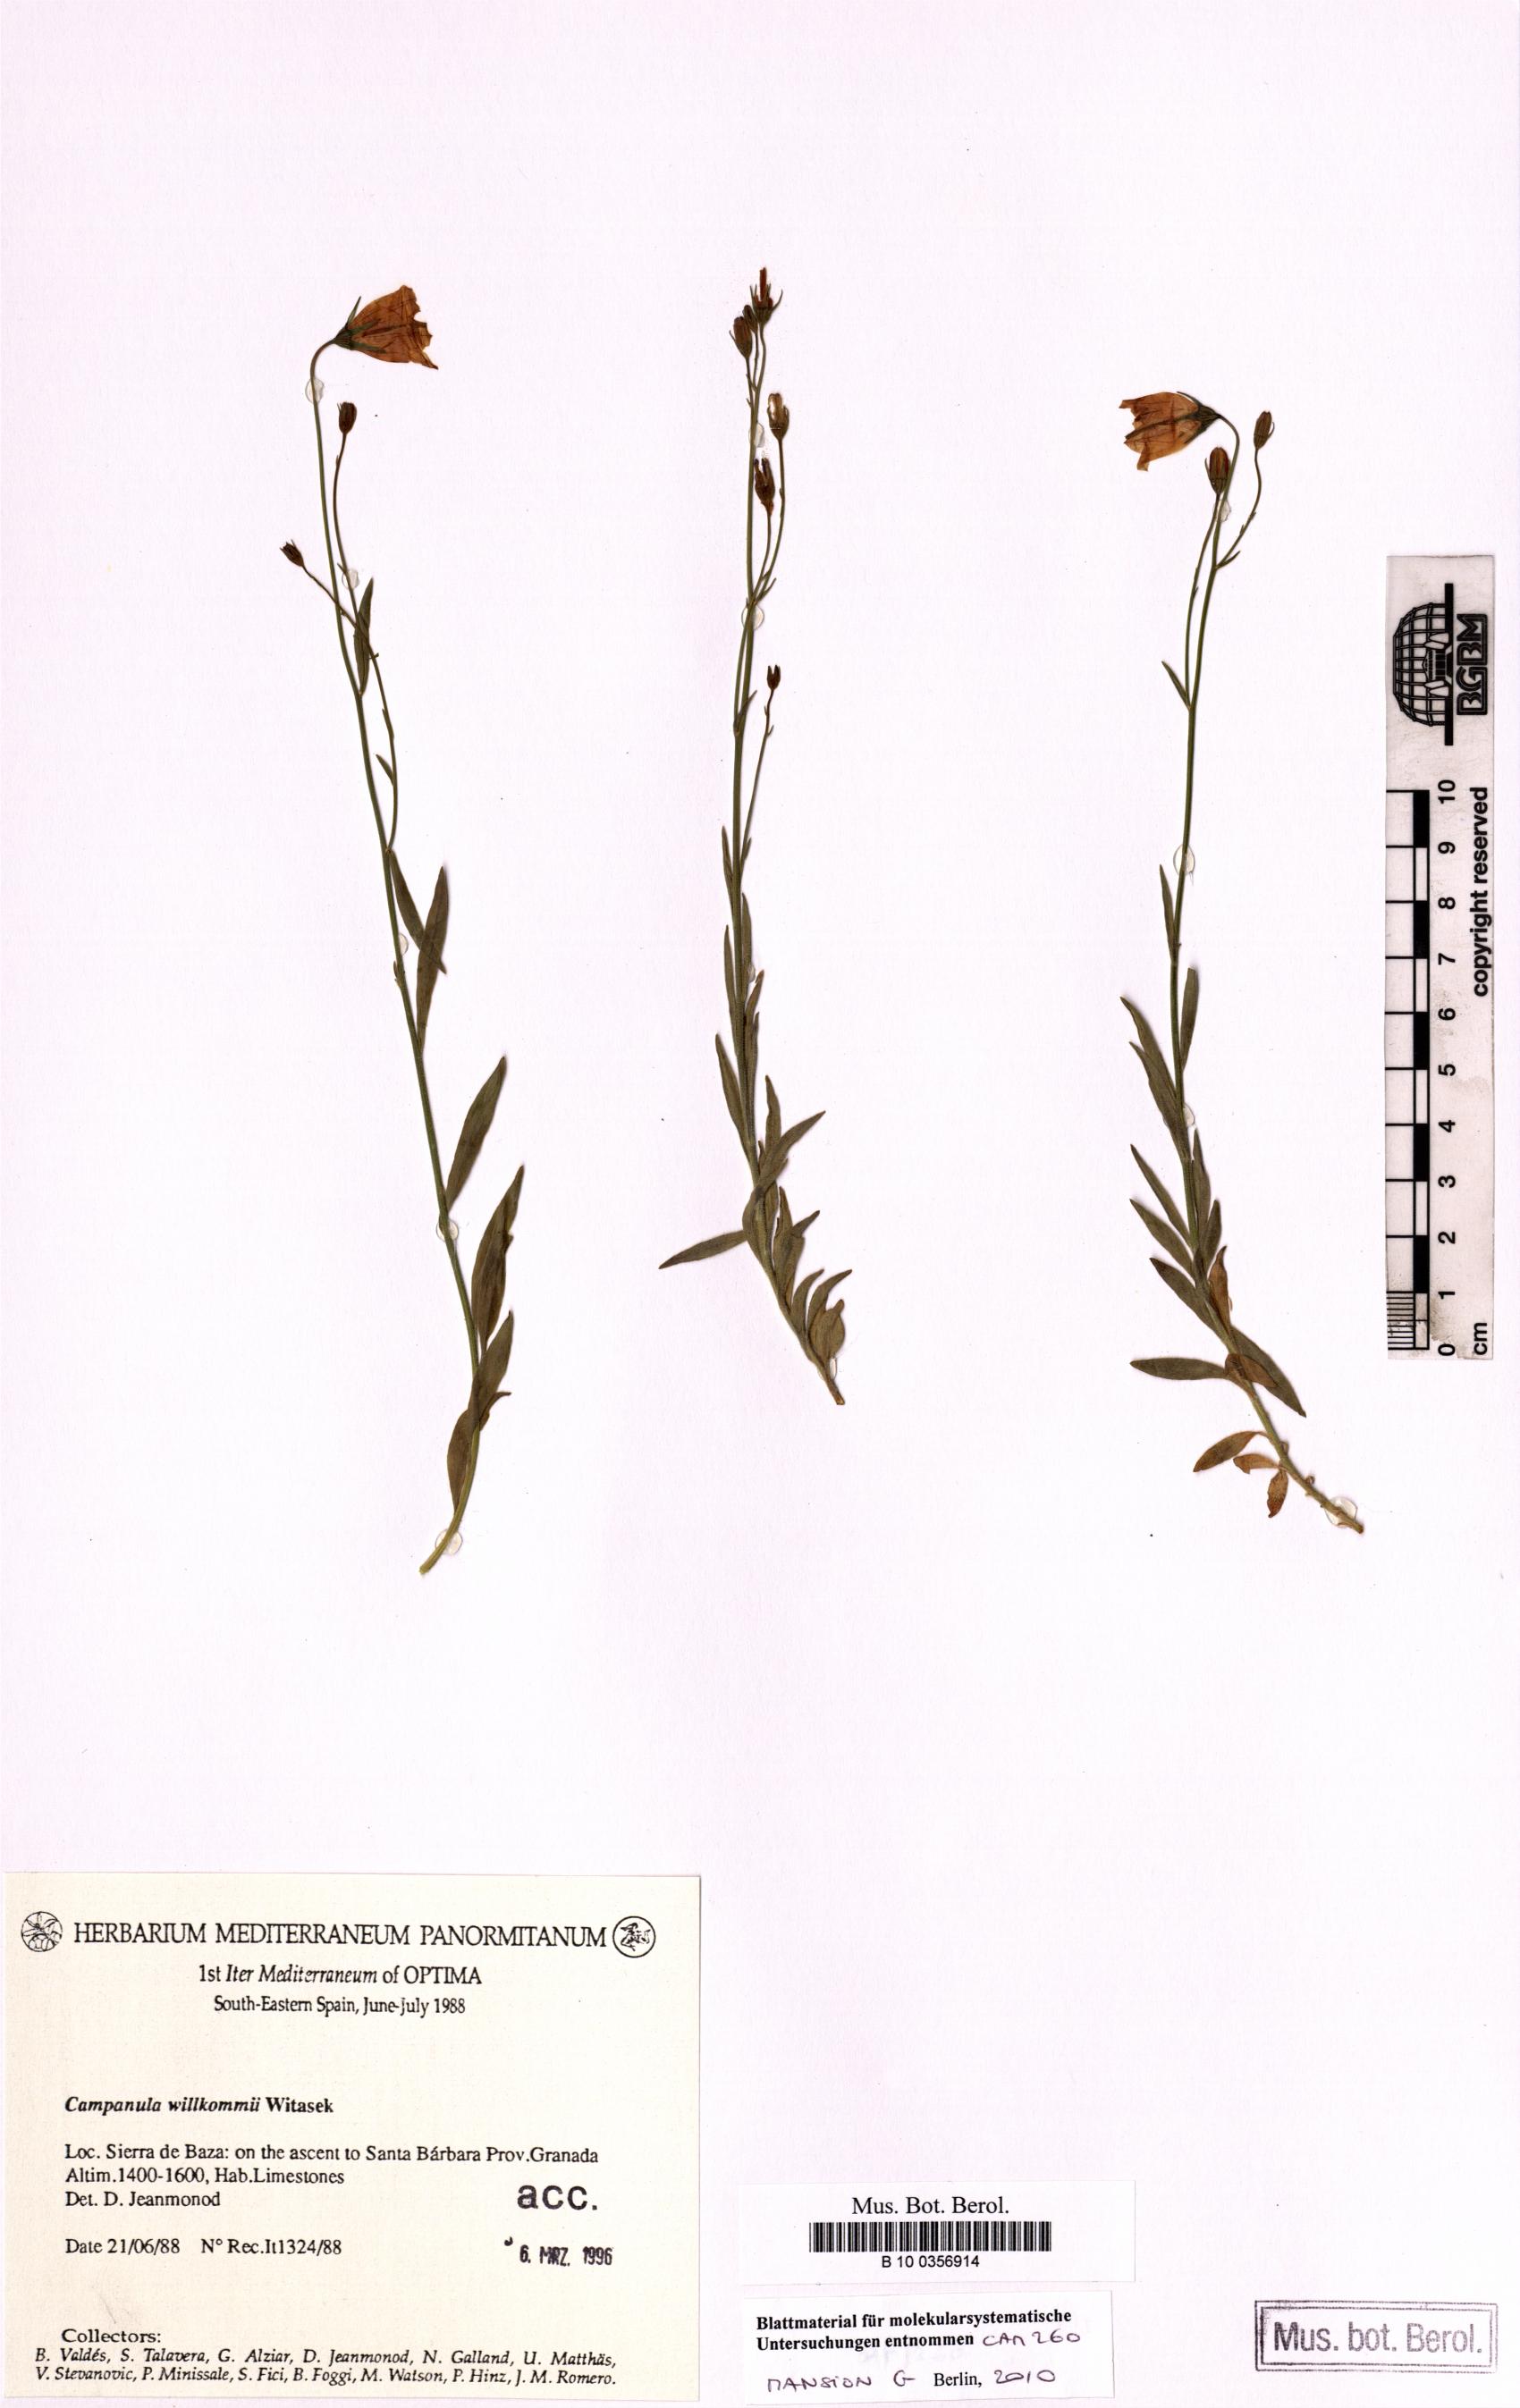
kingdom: Plantae
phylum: Tracheophyta
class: Magnoliopsida
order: Asterales
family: Campanulaceae
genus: Campanula
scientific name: Campanula willkommii
